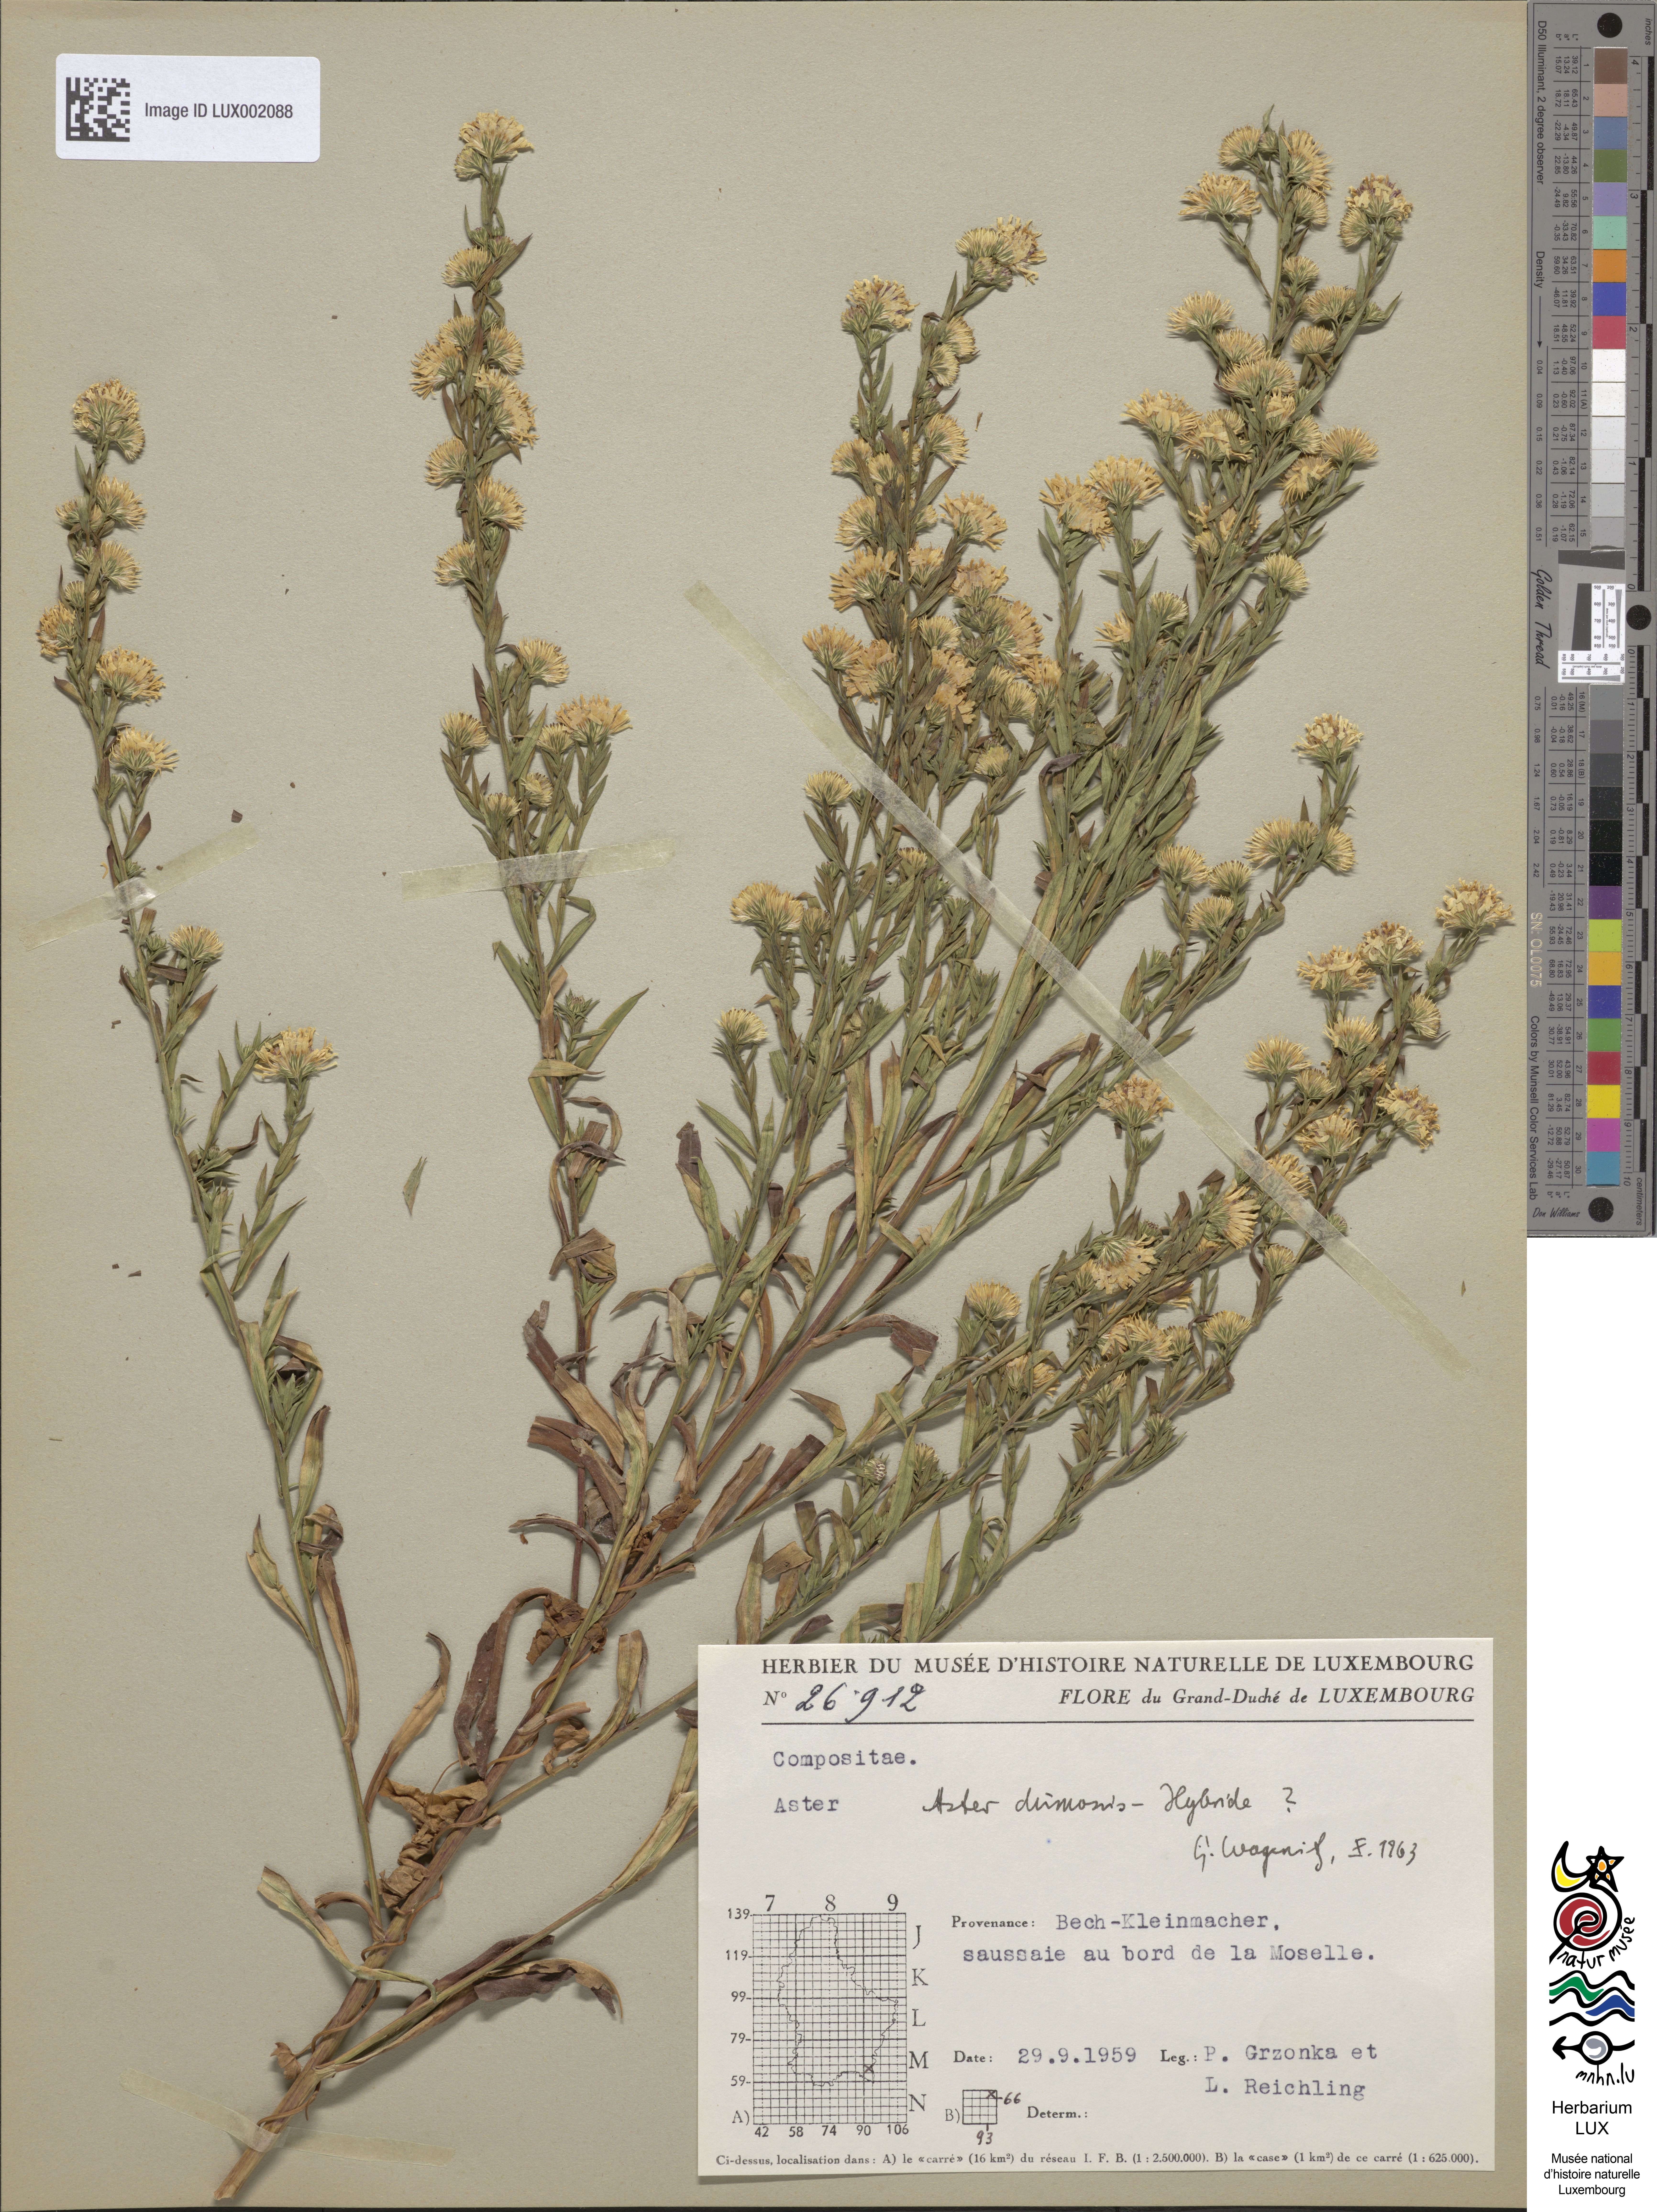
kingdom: Plantae
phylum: Tracheophyta
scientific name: Tracheophyta
